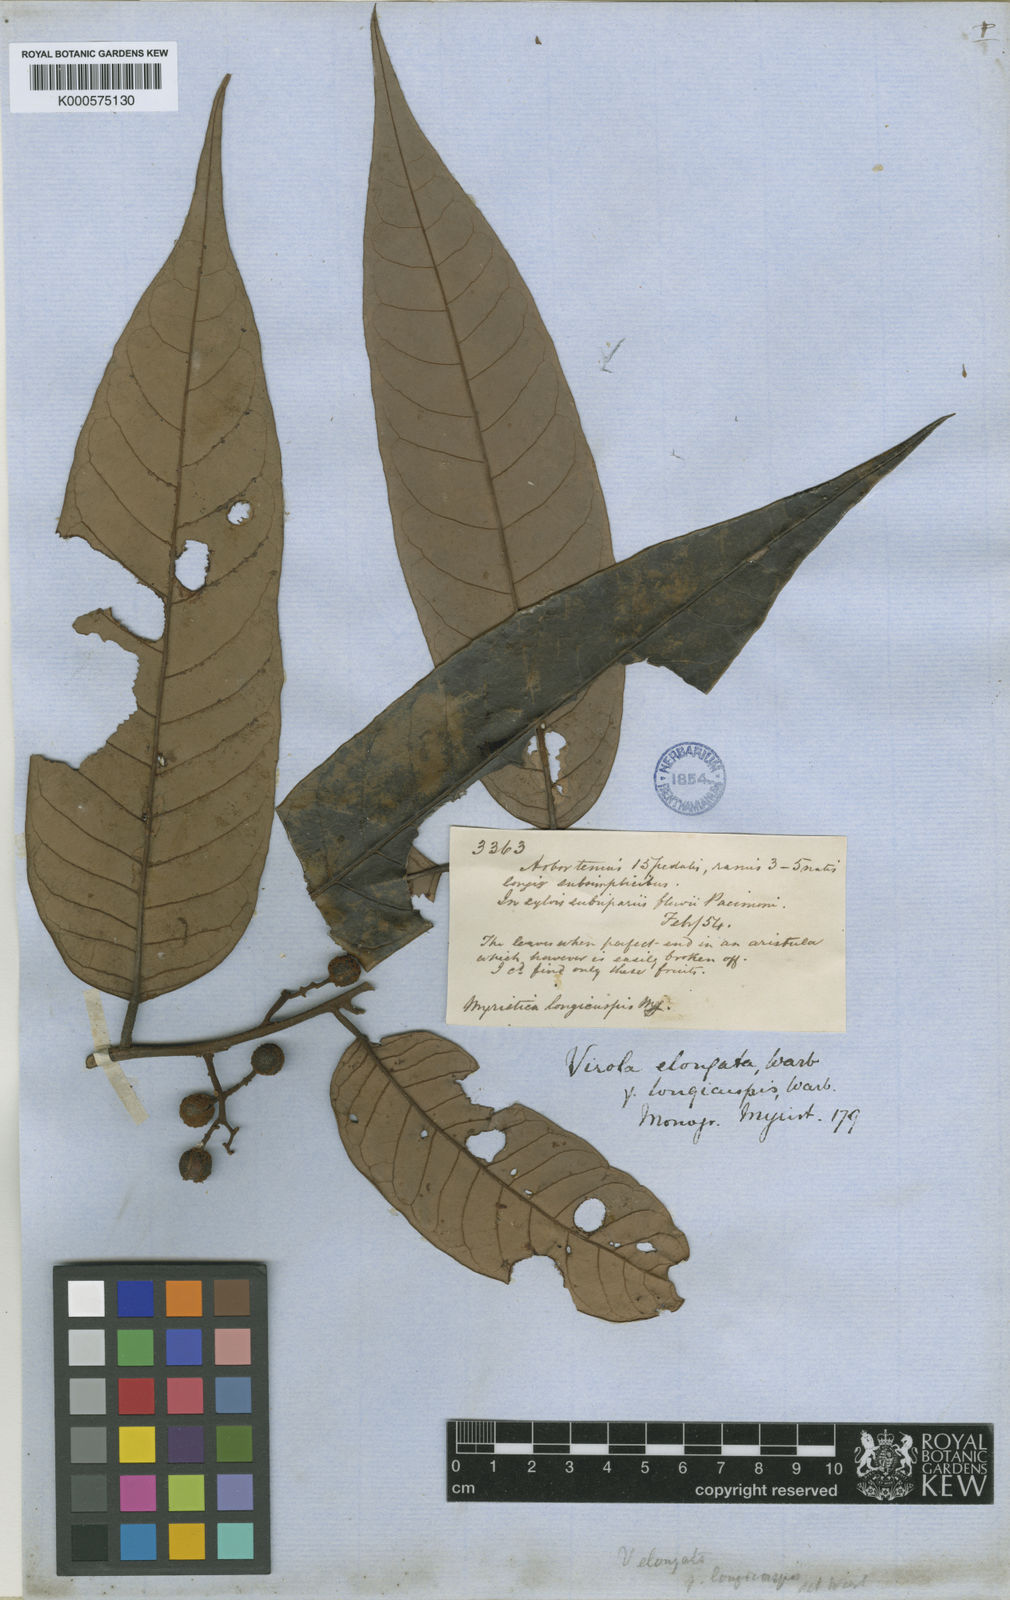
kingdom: Plantae
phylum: Tracheophyta
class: Magnoliopsida
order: Magnoliales
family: Myristicaceae
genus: Virola
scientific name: Virola elongata
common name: Sacred virola
